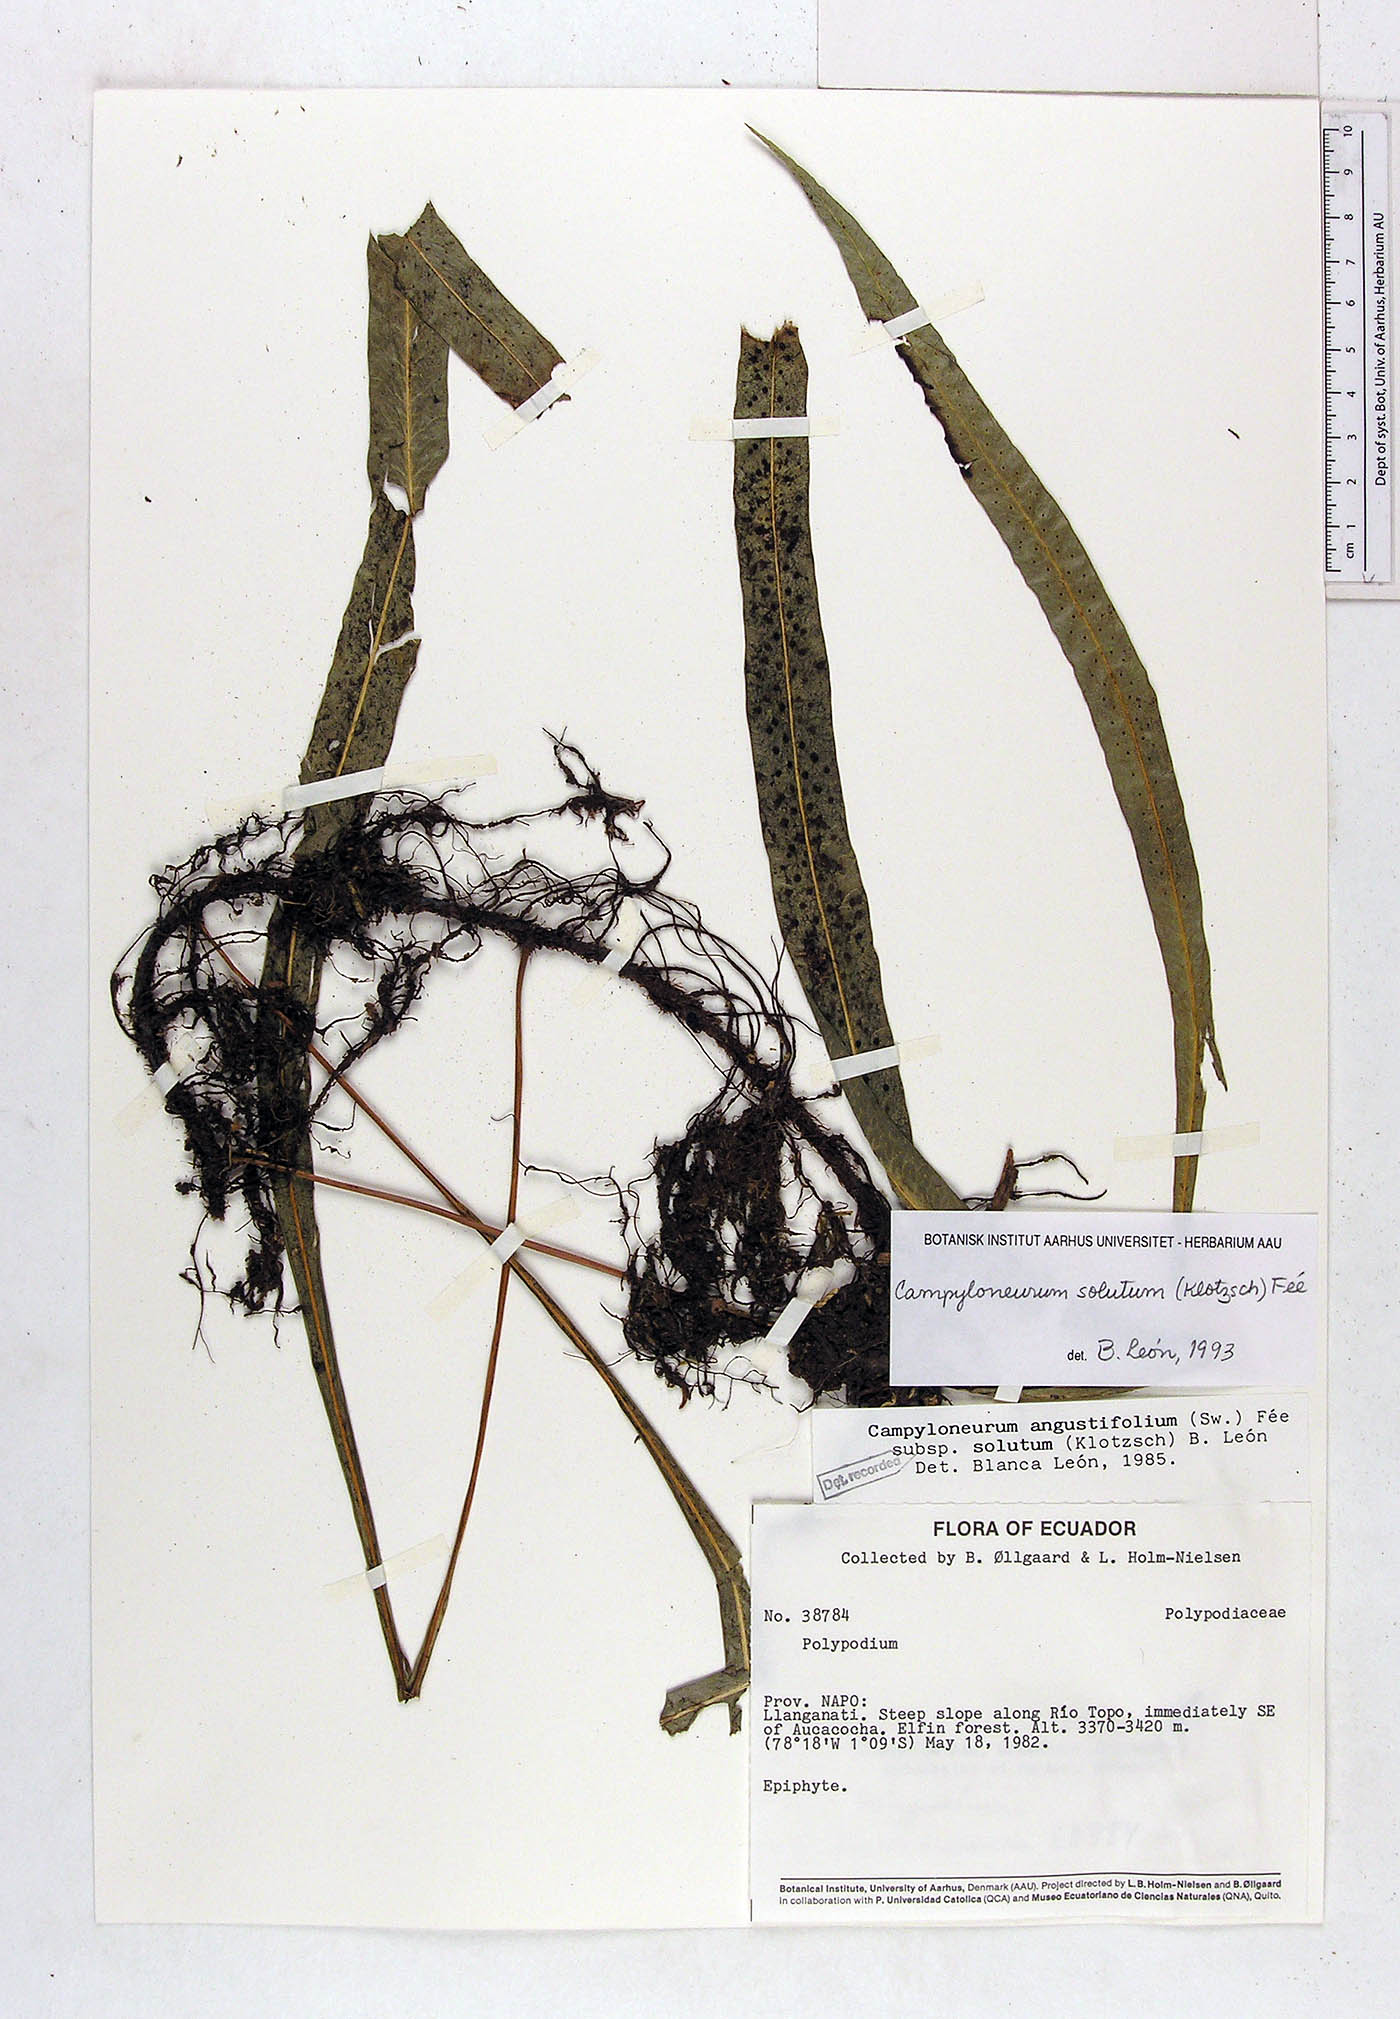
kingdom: Plantae
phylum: Tracheophyta
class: Polypodiopsida
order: Polypodiales
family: Polypodiaceae
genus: Campyloneurum
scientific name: Campyloneurum solutum
